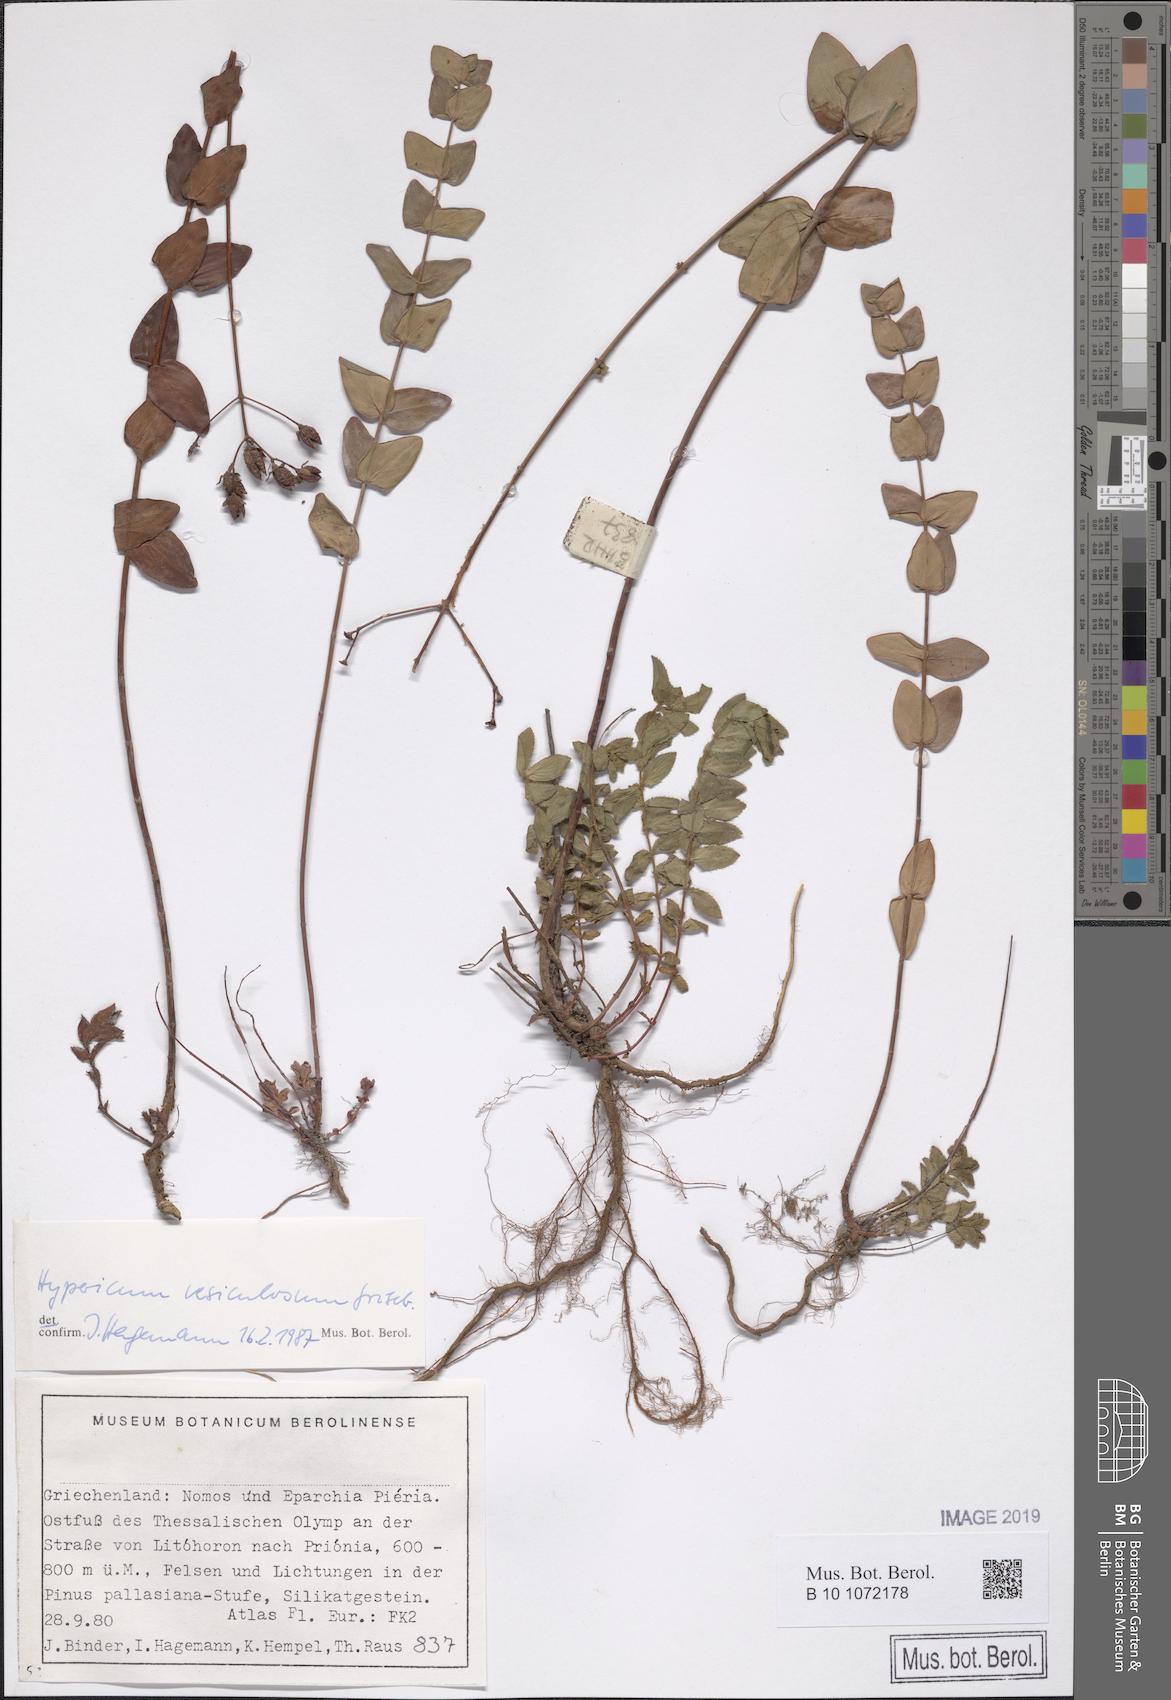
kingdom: Plantae
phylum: Tracheophyta
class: Magnoliopsida
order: Malpighiales
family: Hypericaceae
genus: Hypericum
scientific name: Hypericum vesiculosum
